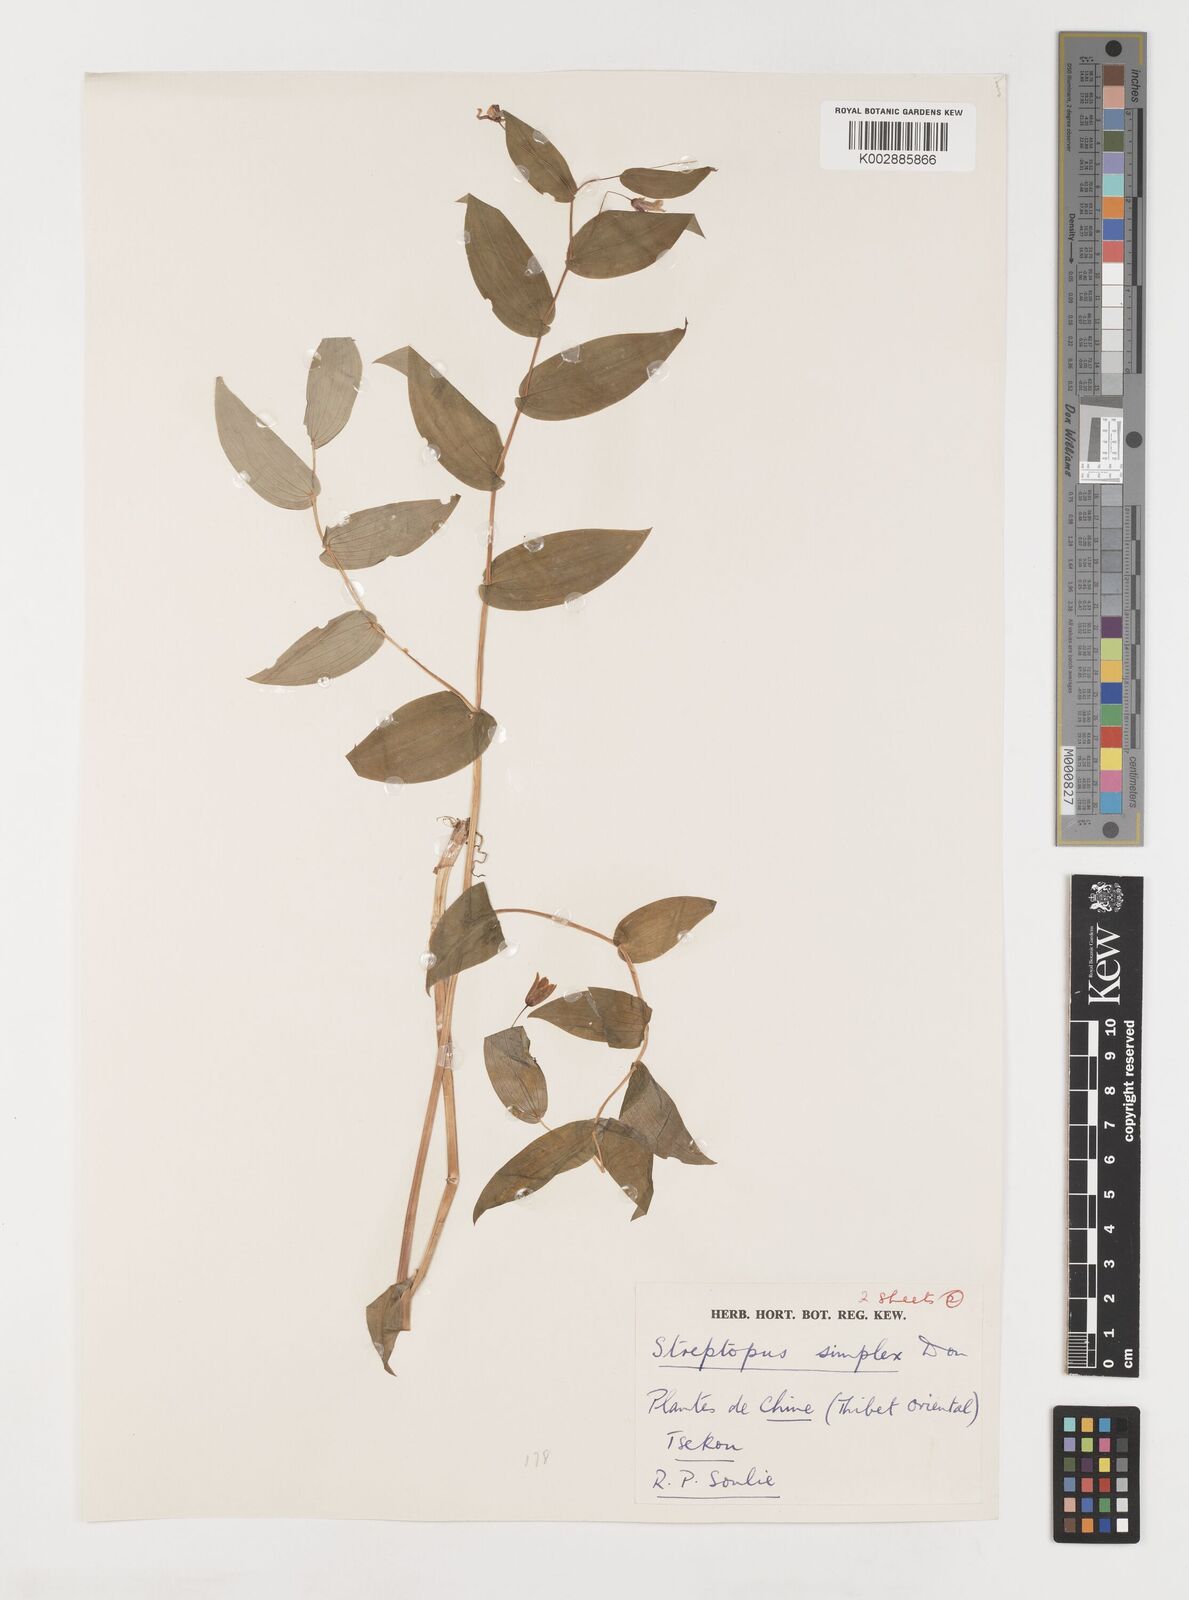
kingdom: Plantae
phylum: Tracheophyta
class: Liliopsida
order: Liliales
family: Liliaceae
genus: Streptopus
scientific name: Streptopus simplex
